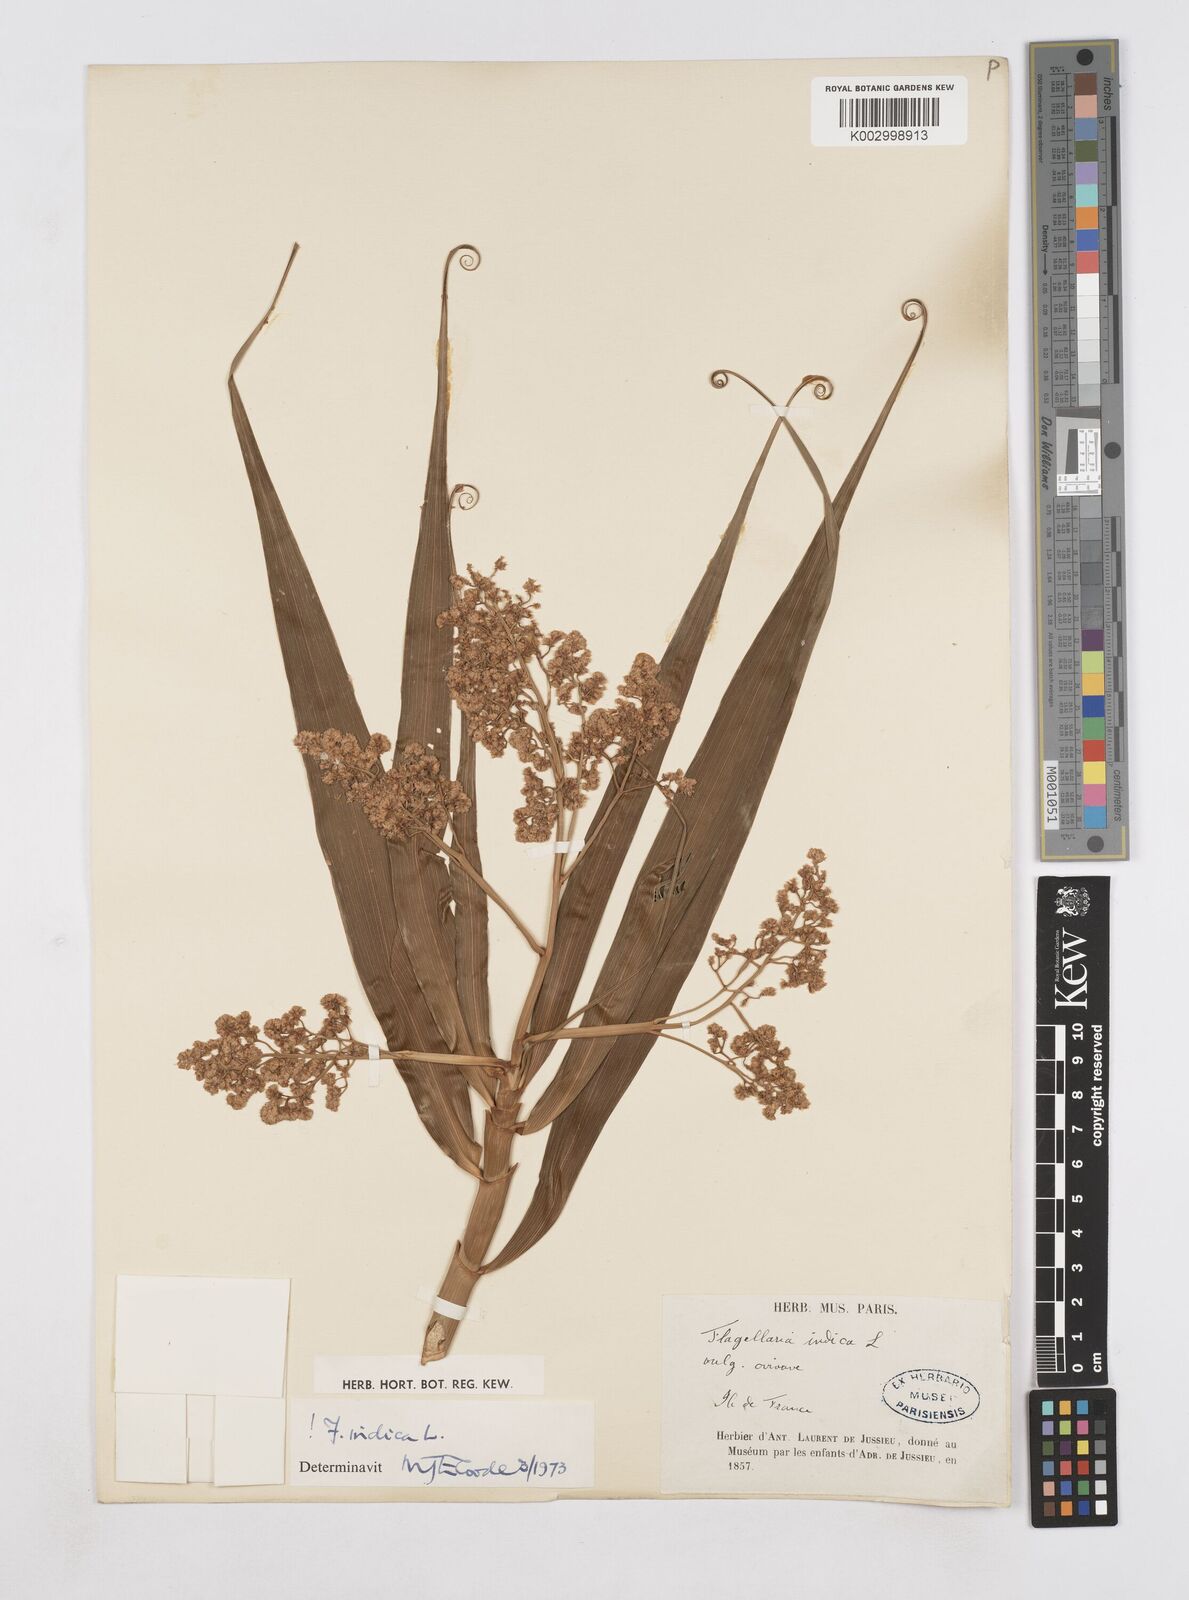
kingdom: Plantae
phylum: Tracheophyta
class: Liliopsida
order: Poales
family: Flagellariaceae
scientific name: Flagellariaceae
